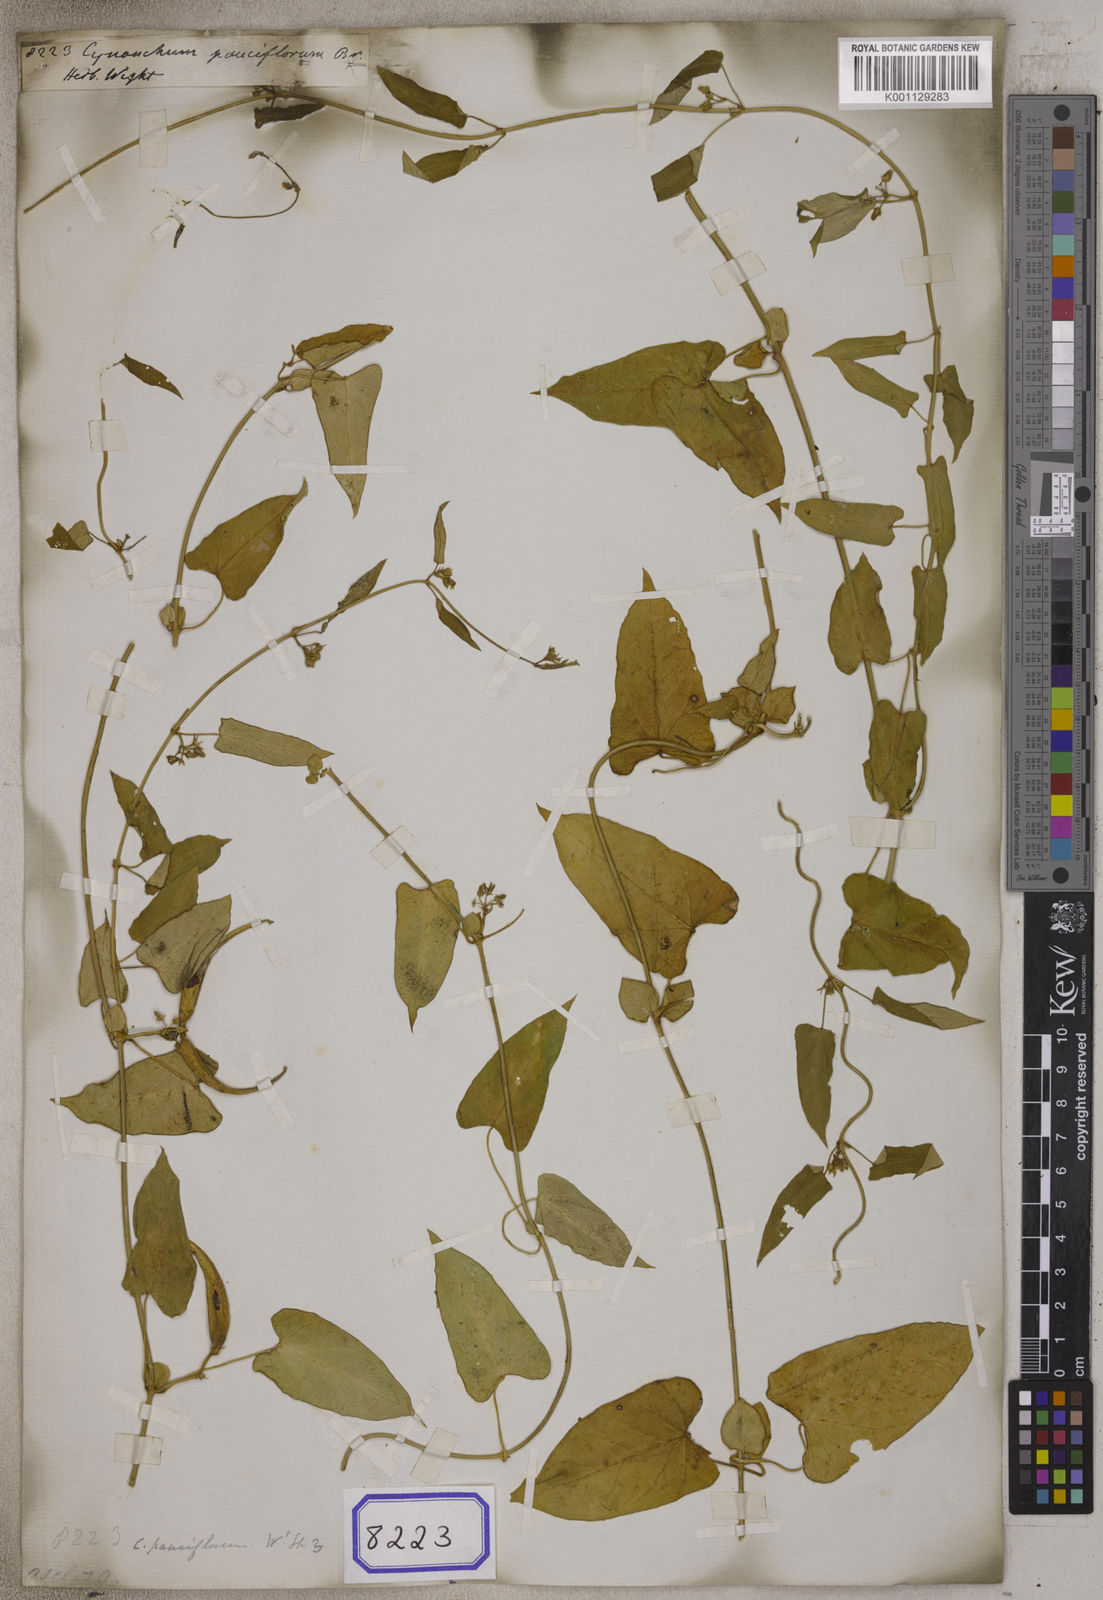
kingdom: Plantae
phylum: Tracheophyta
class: Magnoliopsida
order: Gentianales
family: Apocynaceae
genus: Cynanchum
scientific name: Cynanchum tunicatum
